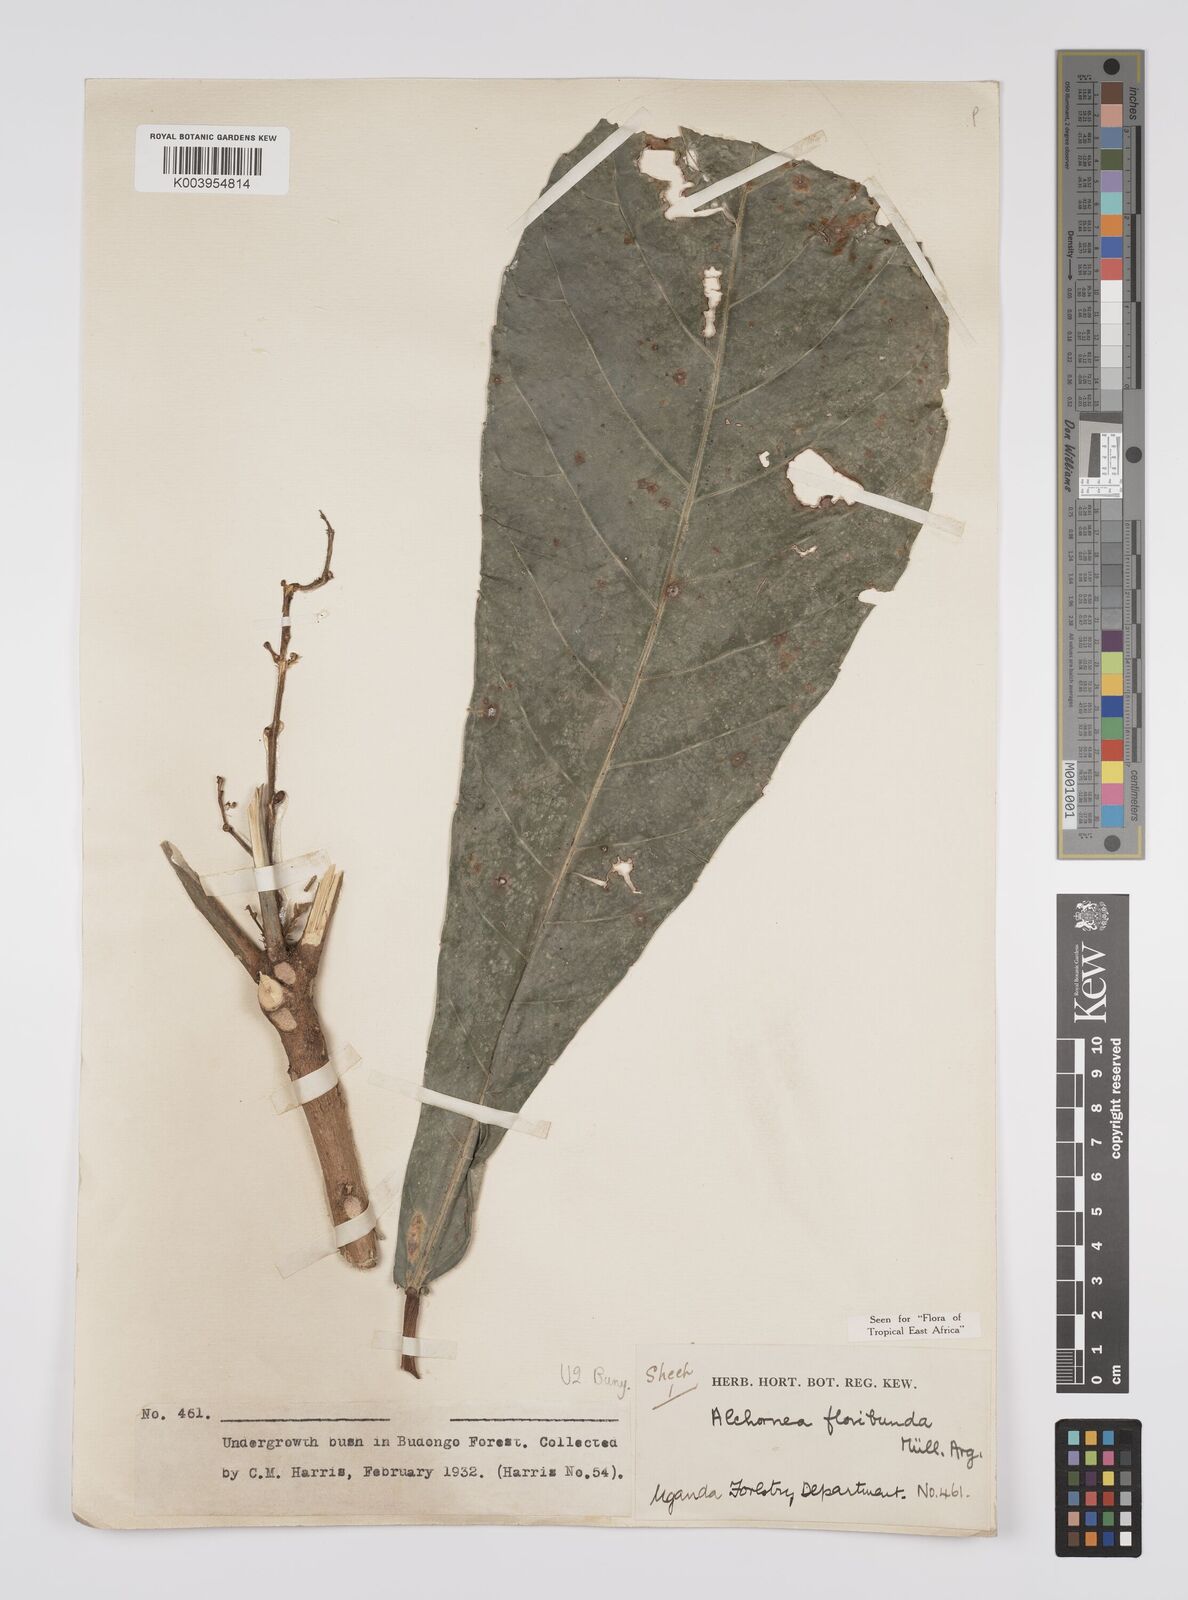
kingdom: Plantae
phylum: Tracheophyta
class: Magnoliopsida
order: Malpighiales
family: Euphorbiaceae
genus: Alchornea
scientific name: Alchornea floribunda
